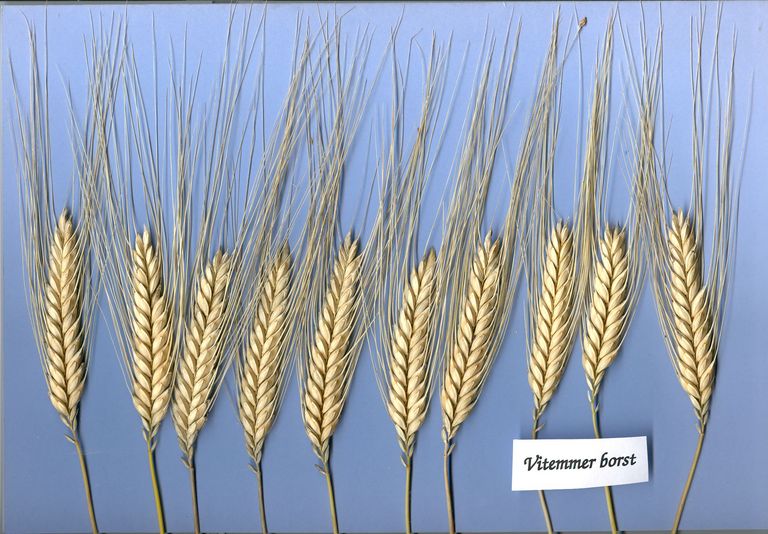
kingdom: Plantae
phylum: Tracheophyta
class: Liliopsida
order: Poales
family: Poaceae
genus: Triticum
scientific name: Triticum turgidum
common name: Rivet wheat
